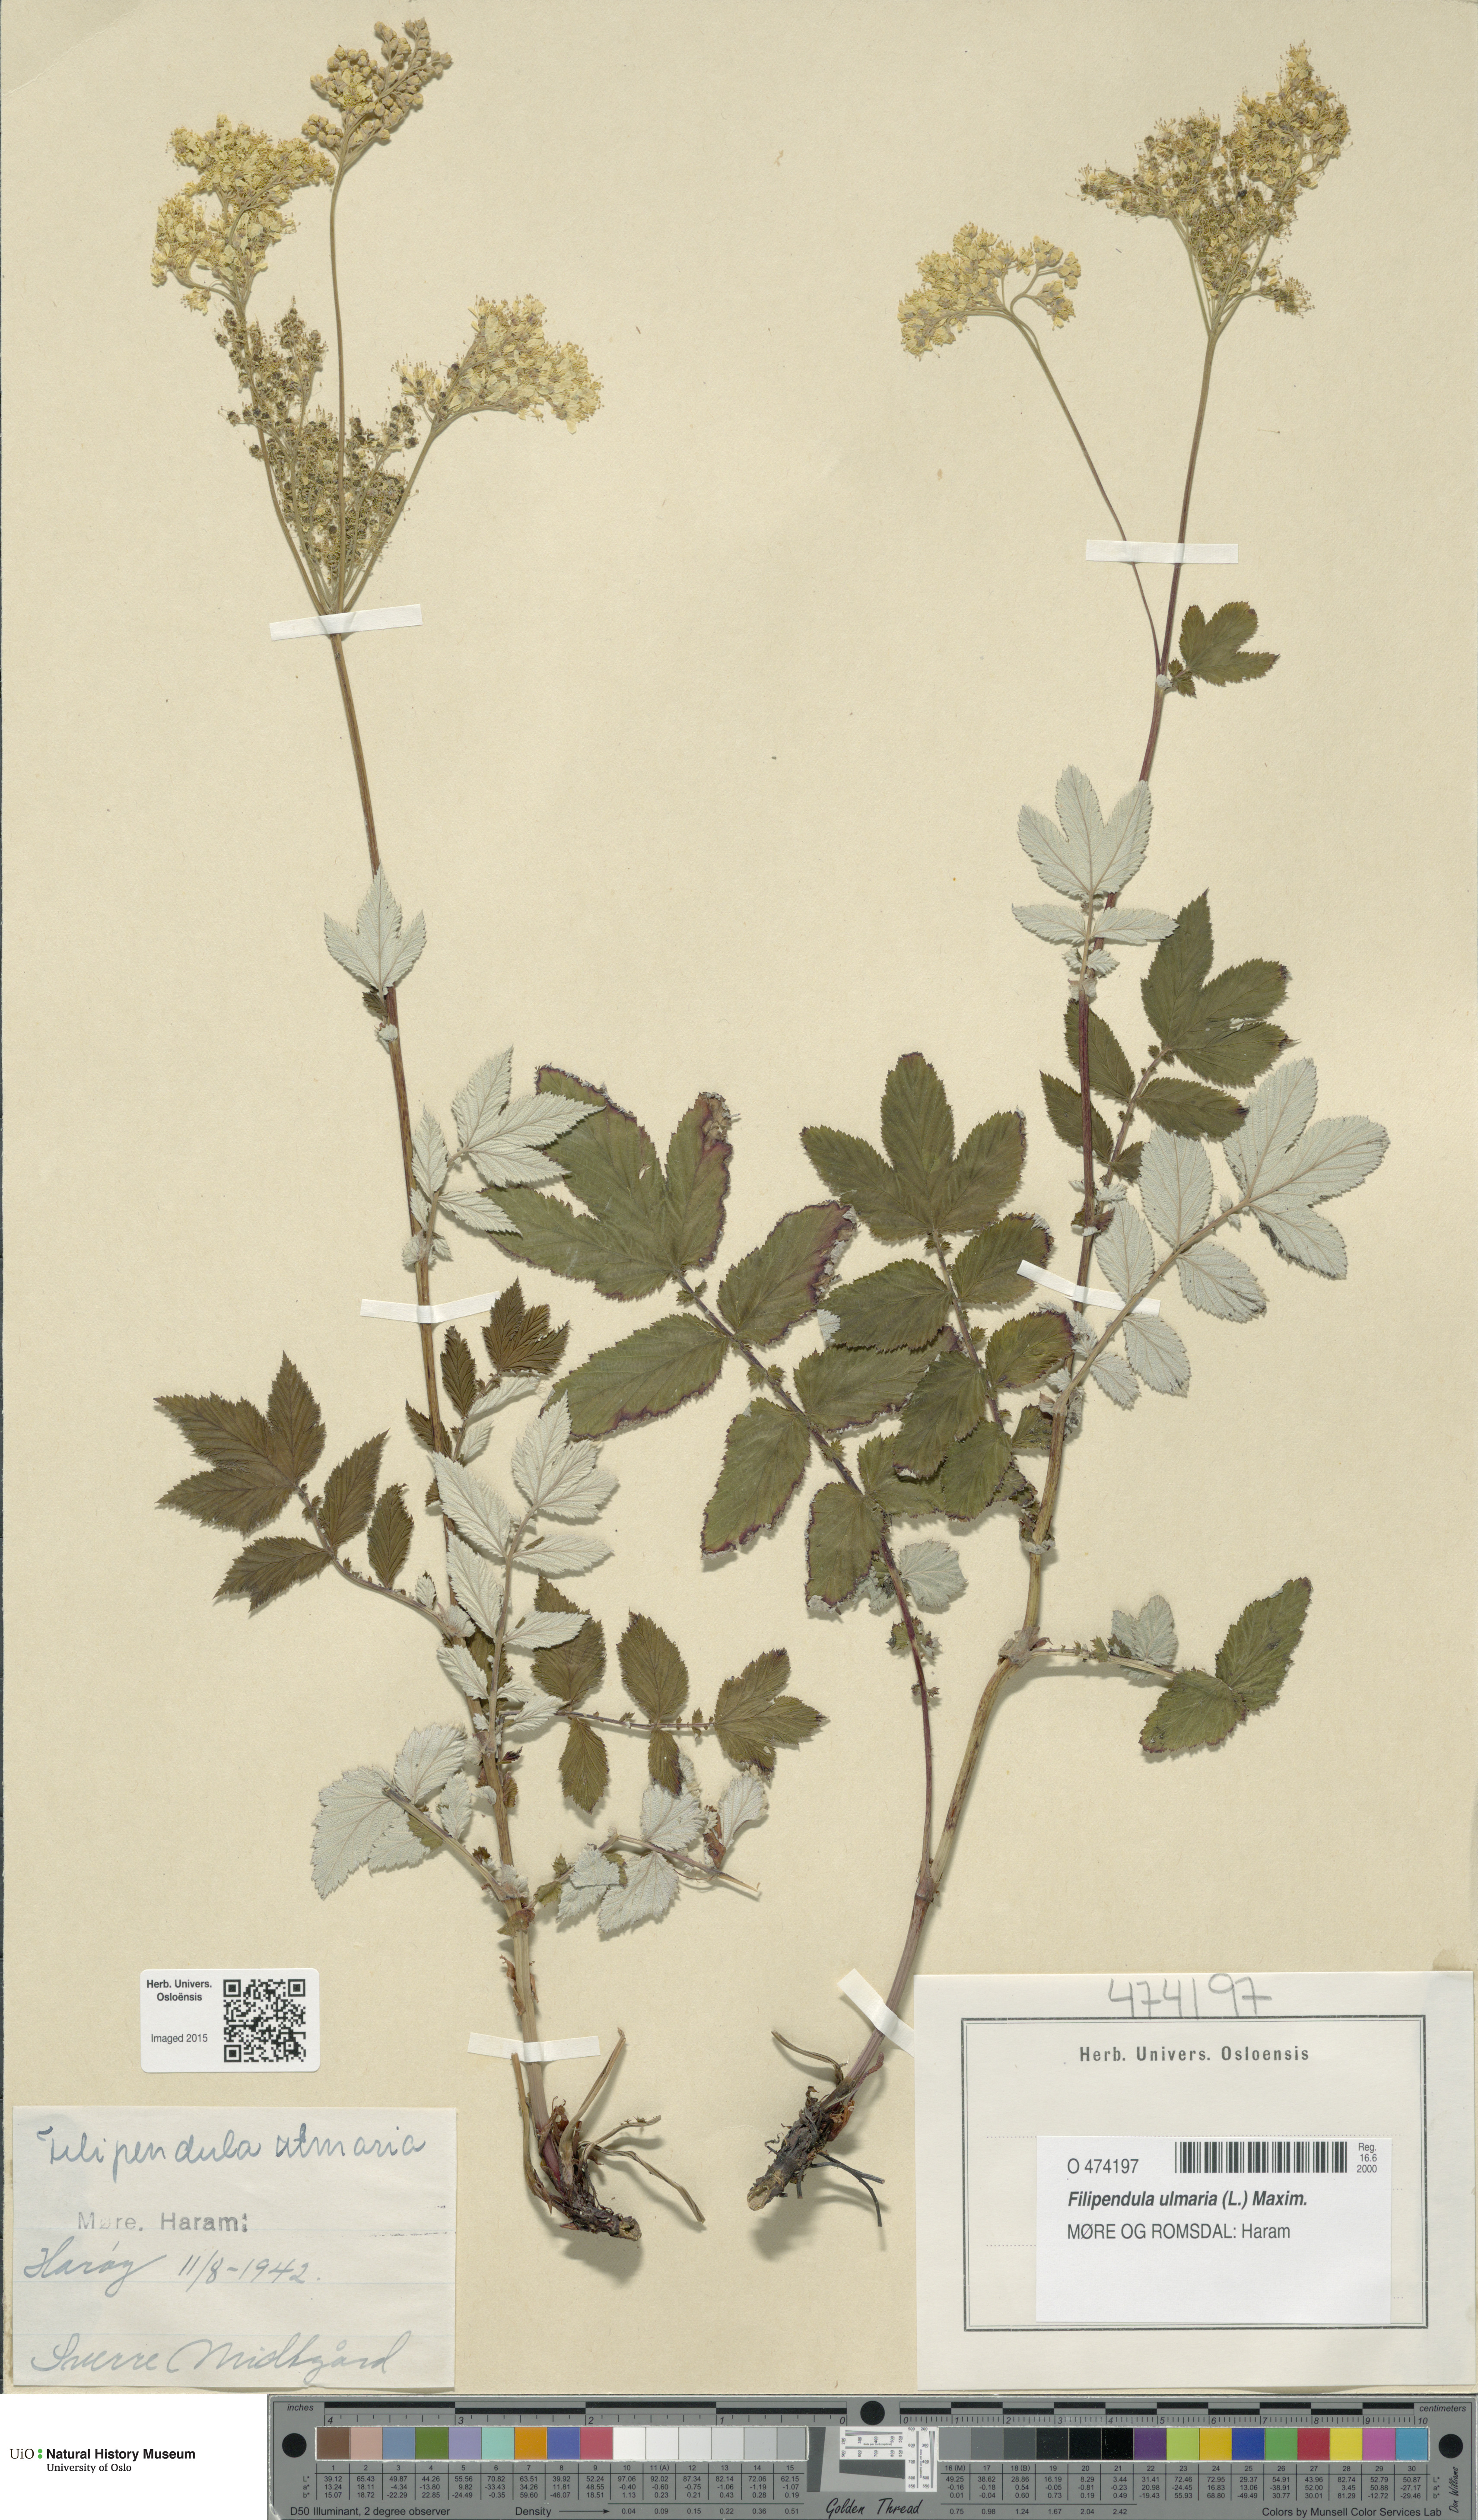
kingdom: Plantae
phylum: Tracheophyta
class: Magnoliopsida
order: Rosales
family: Rosaceae
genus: Filipendula
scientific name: Filipendula ulmaria
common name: Meadowsweet
